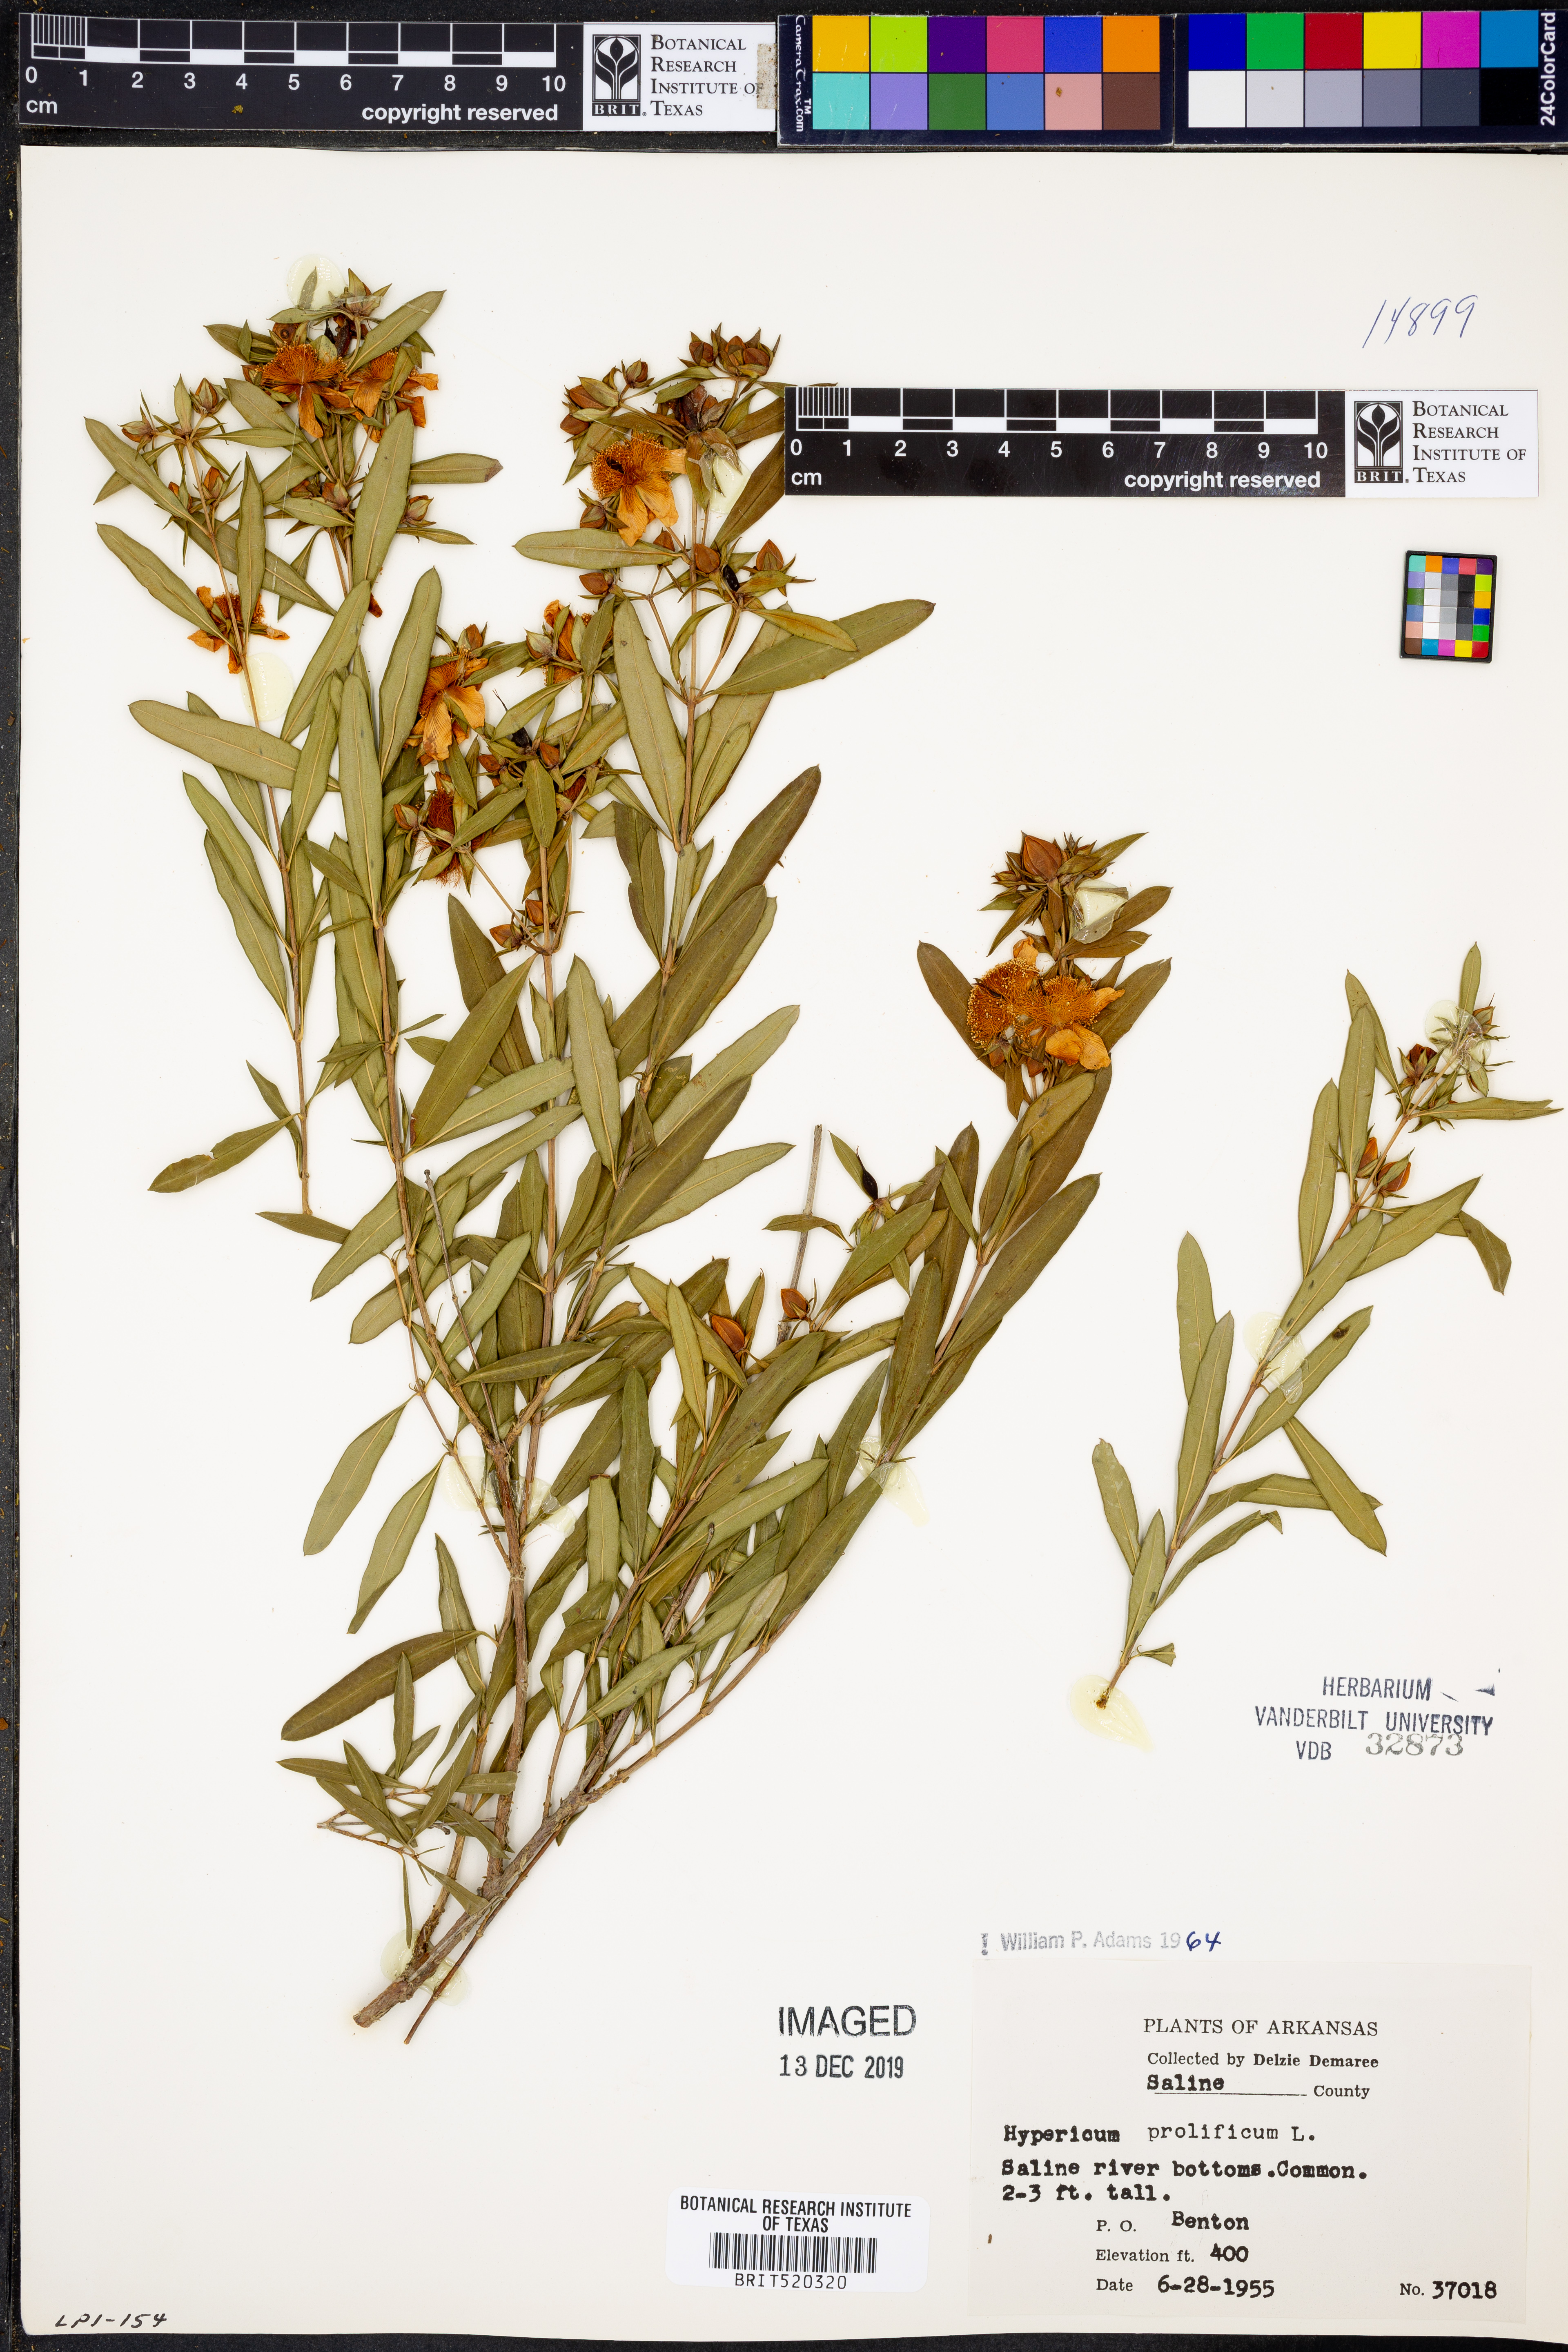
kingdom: Plantae
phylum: Tracheophyta
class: Magnoliopsida
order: Malpighiales
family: Hypericaceae
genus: Hypericum
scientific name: Hypericum prolificum
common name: Shrubby st. john's-wort
